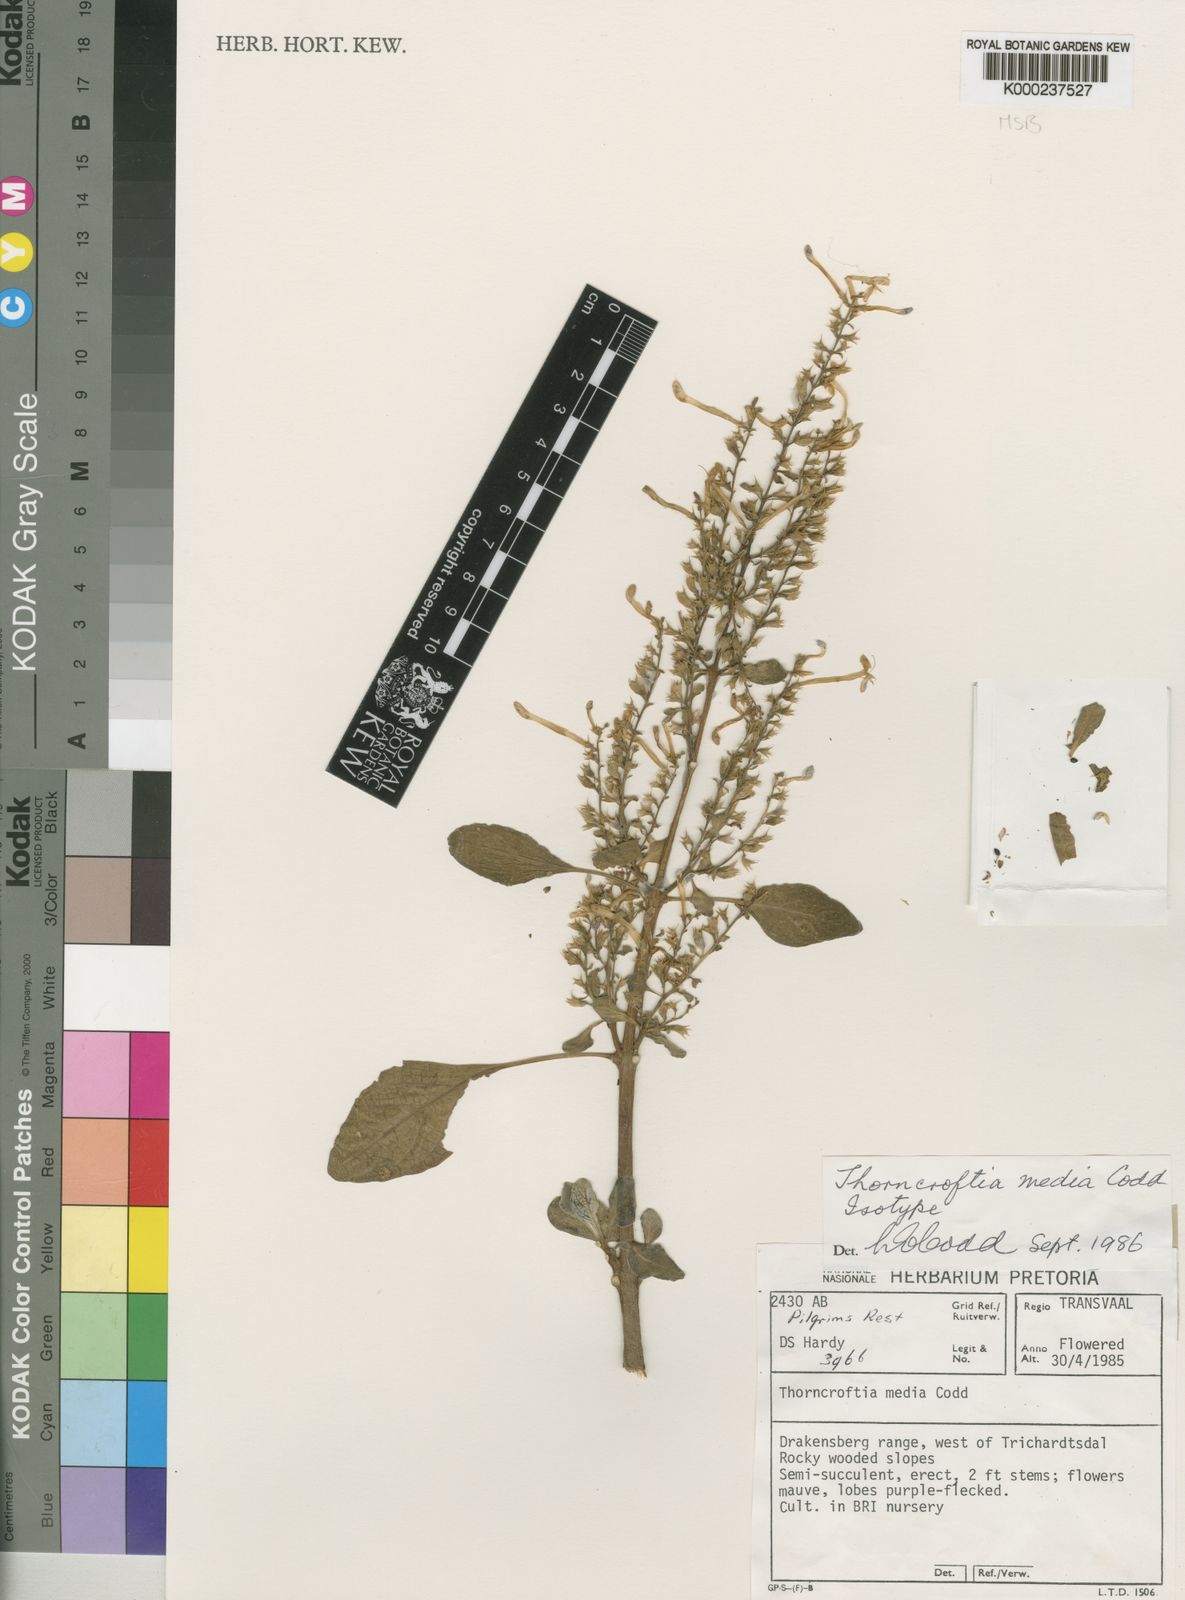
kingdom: Plantae
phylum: Tracheophyta
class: Magnoliopsida
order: Lamiales
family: Lamiaceae
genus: Thorncroftia
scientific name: Thorncroftia media
